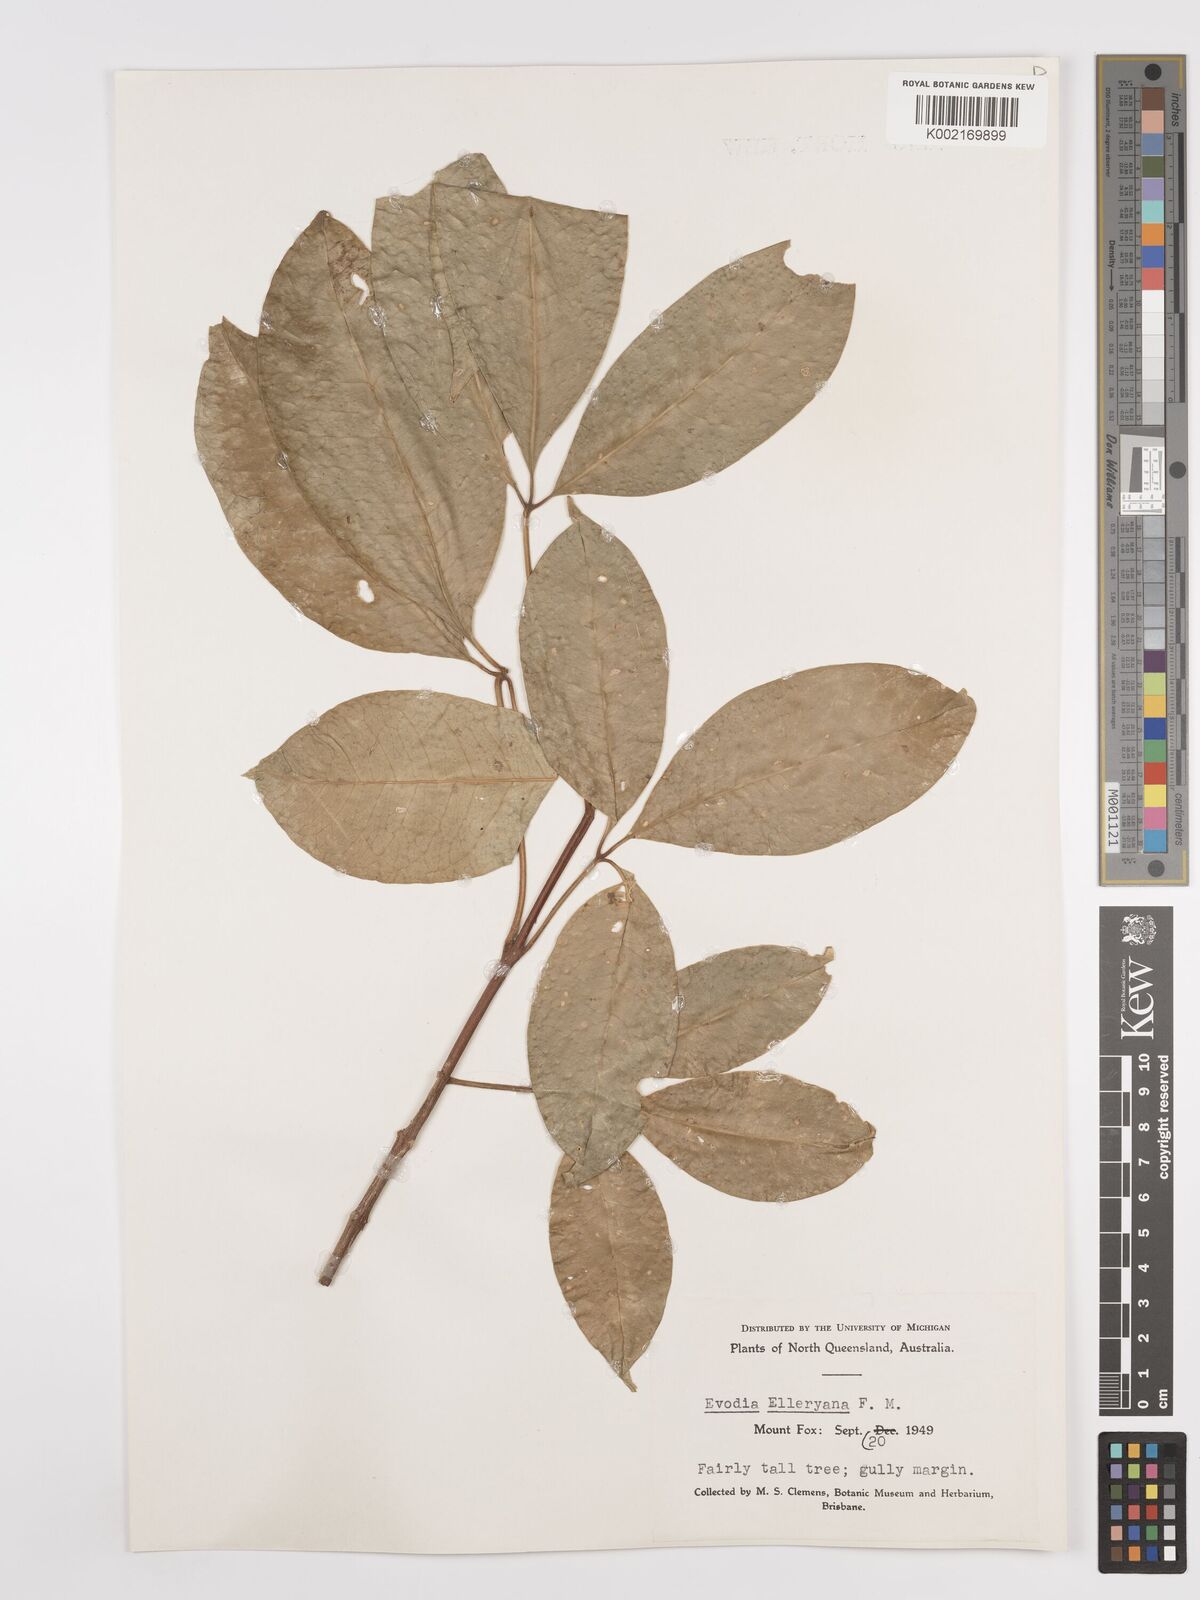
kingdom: Plantae
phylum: Tracheophyta
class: Magnoliopsida
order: Sapindales
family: Rutaceae
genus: Melicope
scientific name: Melicope accedens
